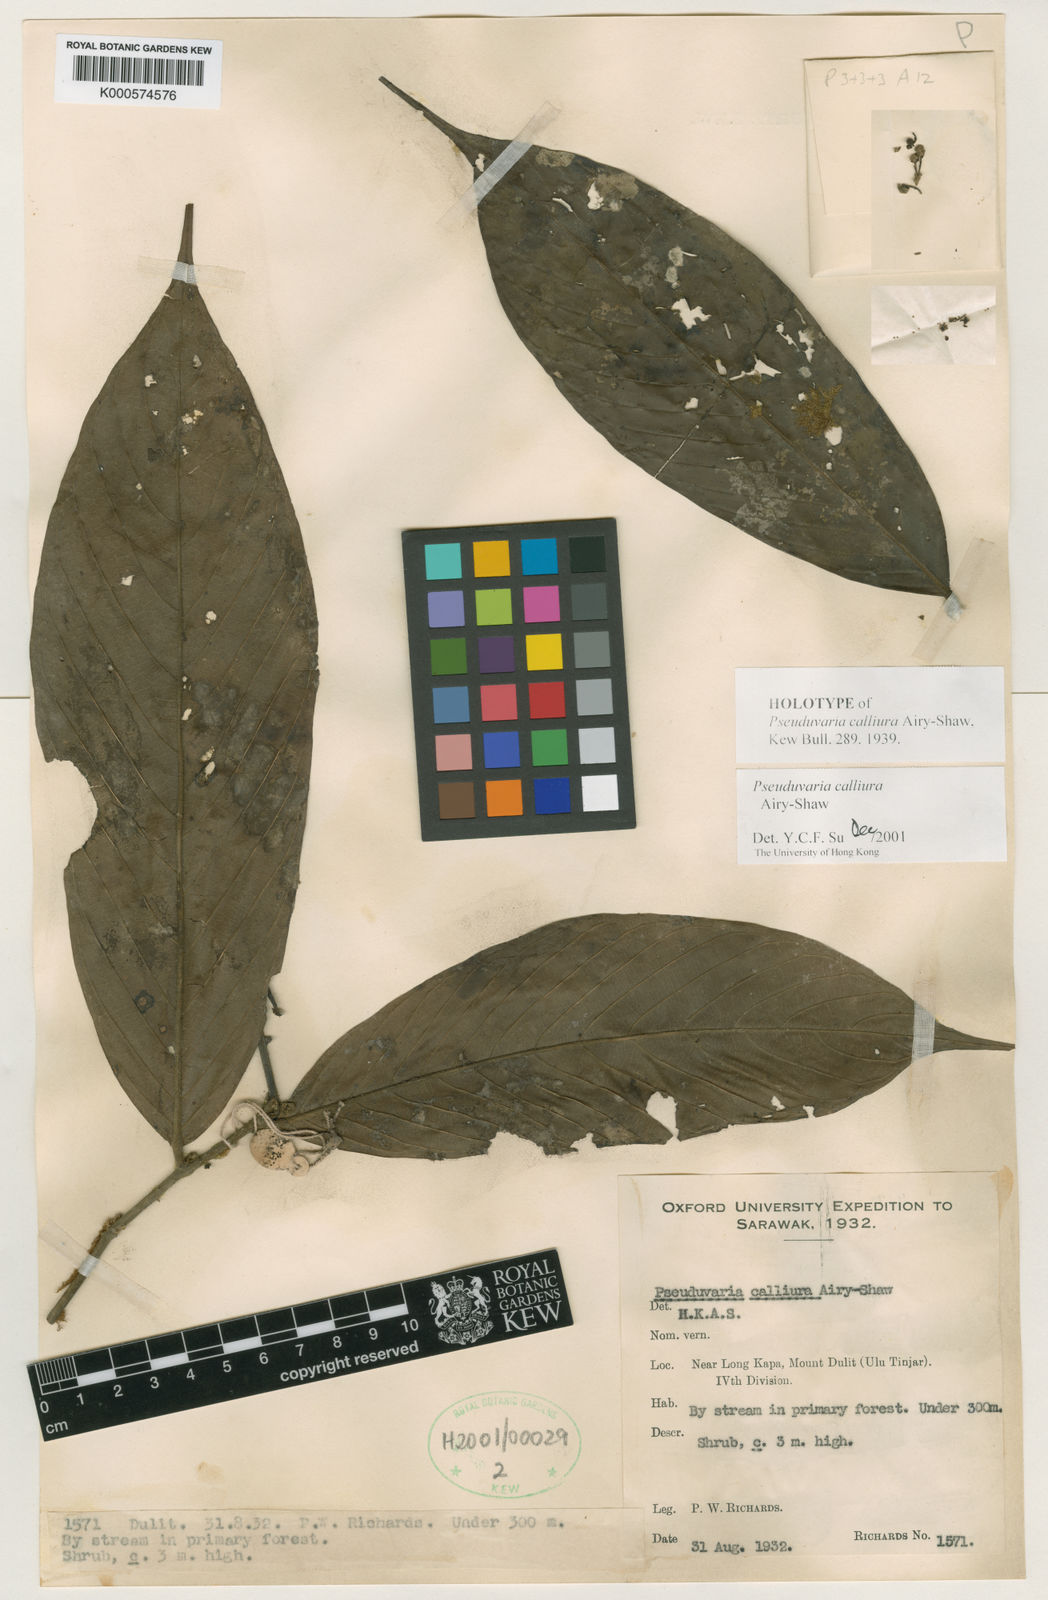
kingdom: Plantae
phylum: Tracheophyta
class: Magnoliopsida
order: Magnoliales
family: Annonaceae
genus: Pseuduvaria
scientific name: Pseuduvaria calliura
